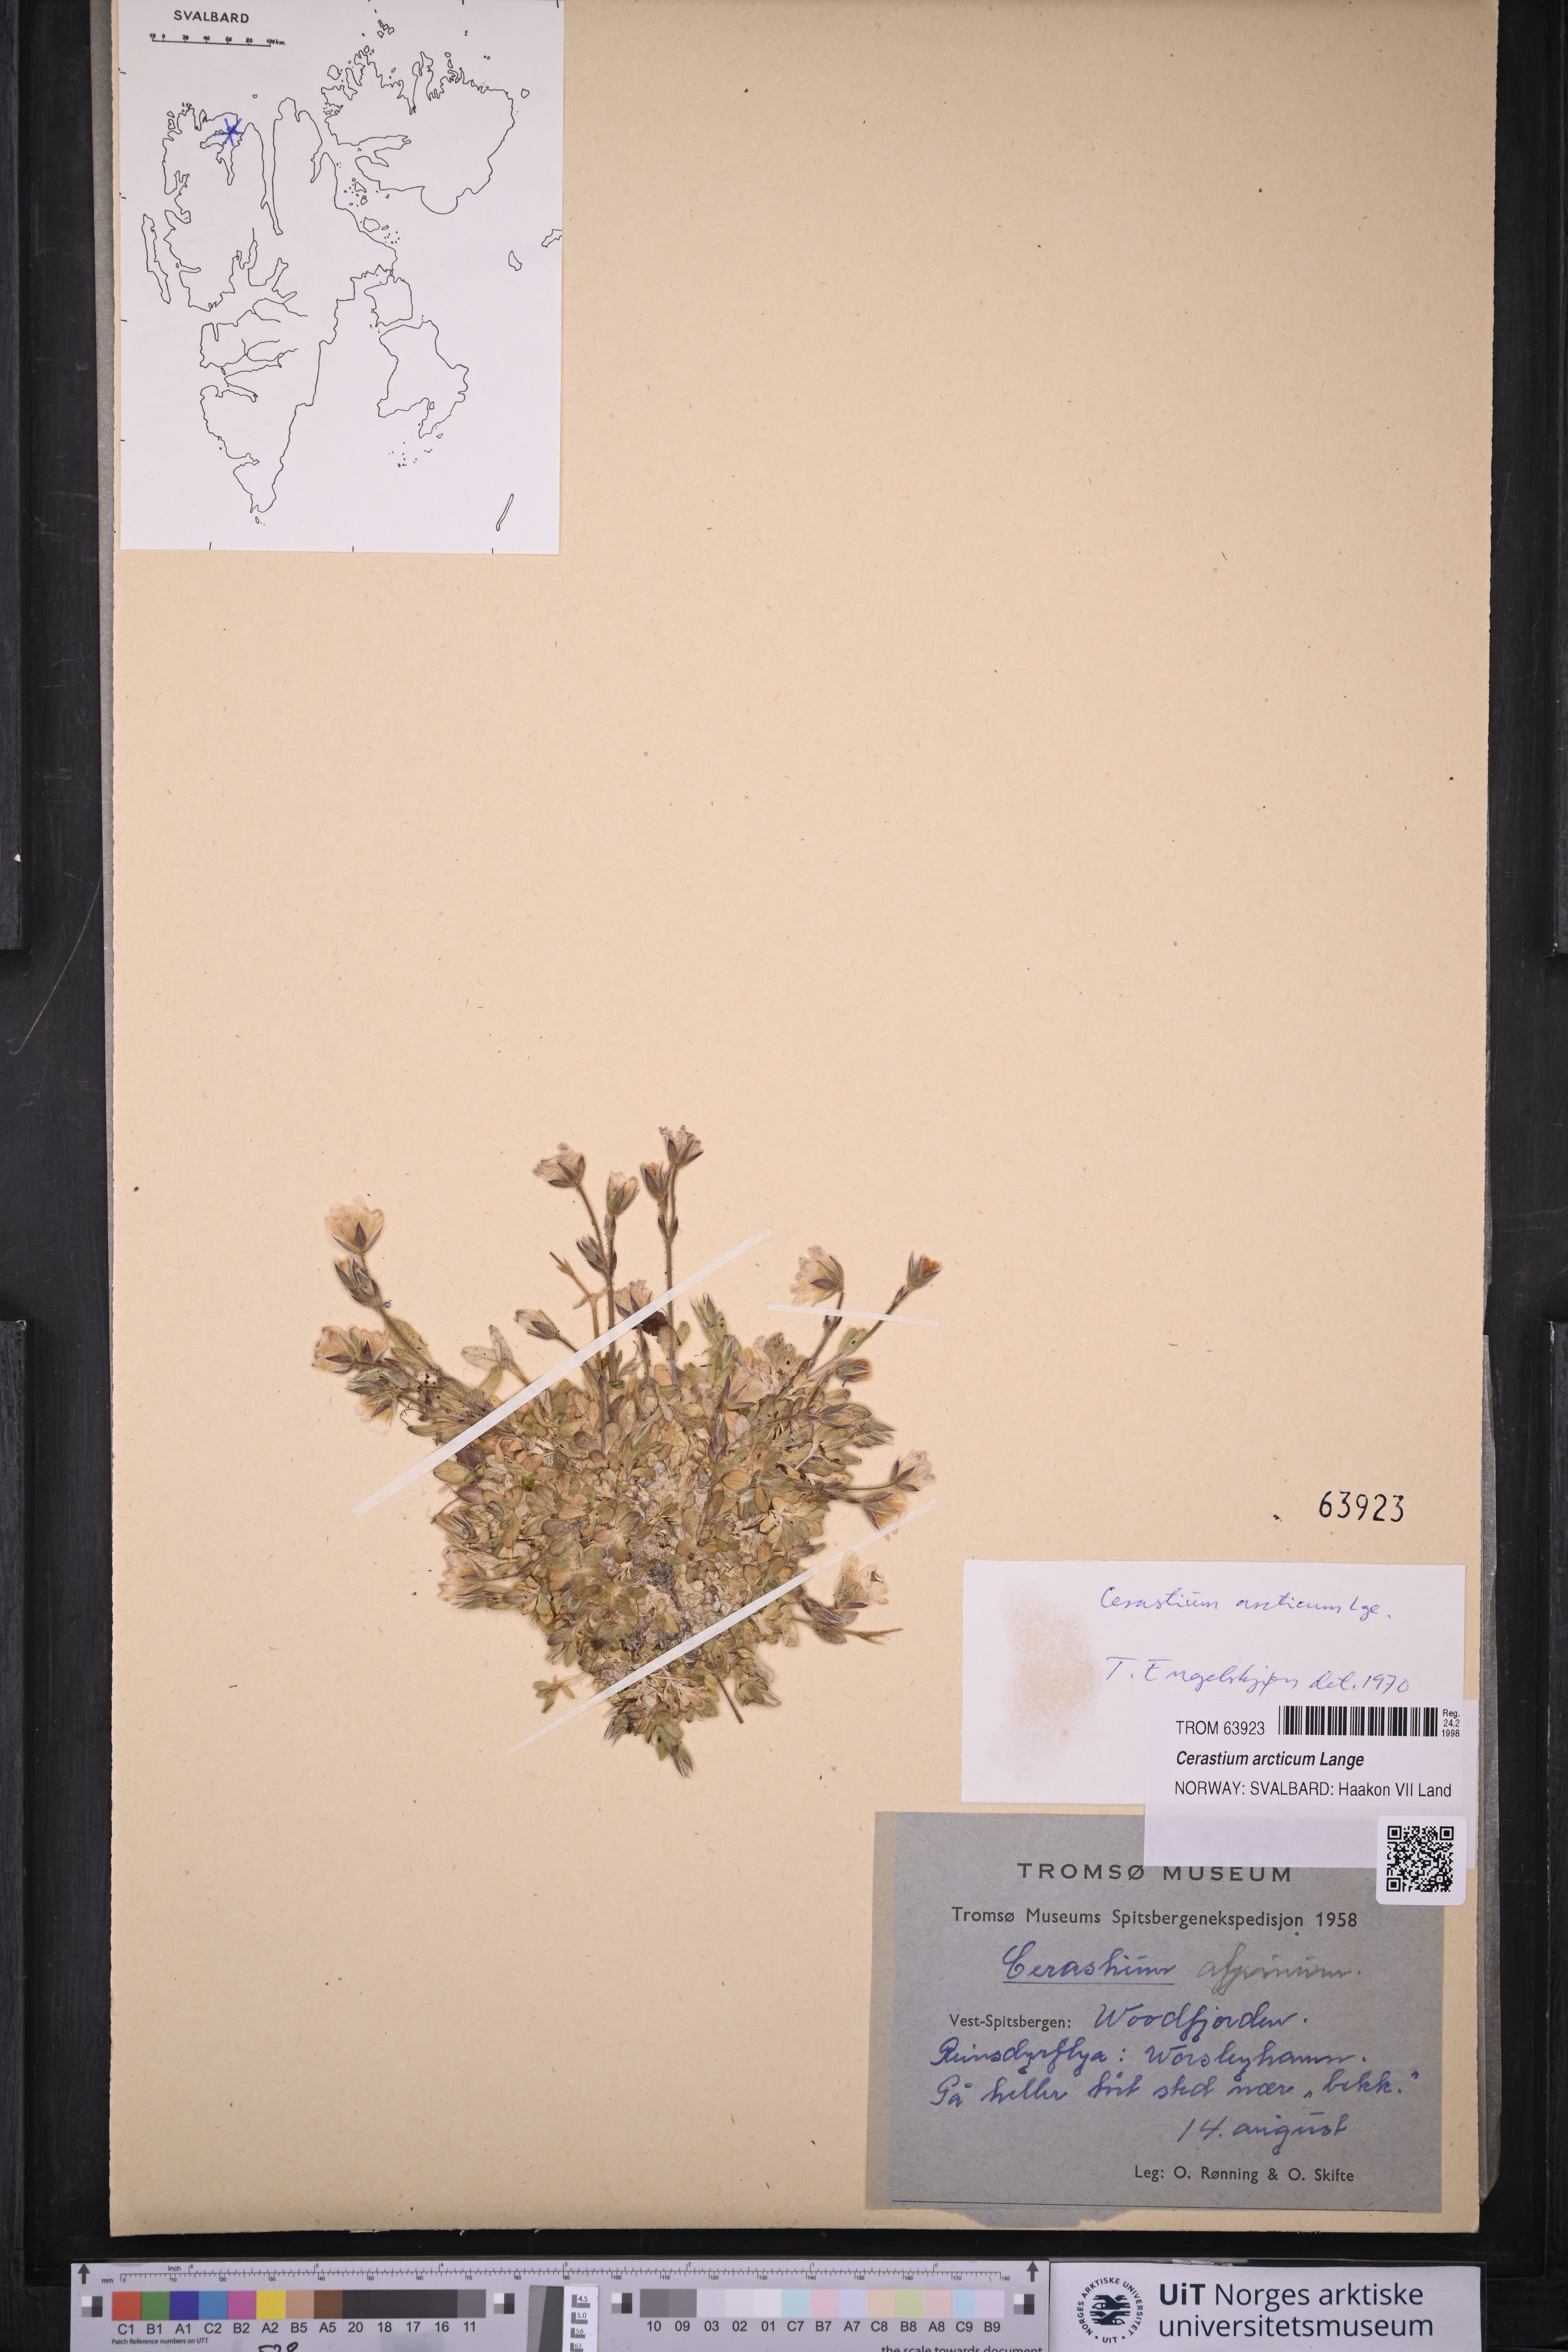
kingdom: Plantae
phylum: Tracheophyta
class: Magnoliopsida
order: Caryophyllales
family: Caryophyllaceae
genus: Cerastium
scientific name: Cerastium arcticum
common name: Arctic mouse-ear
